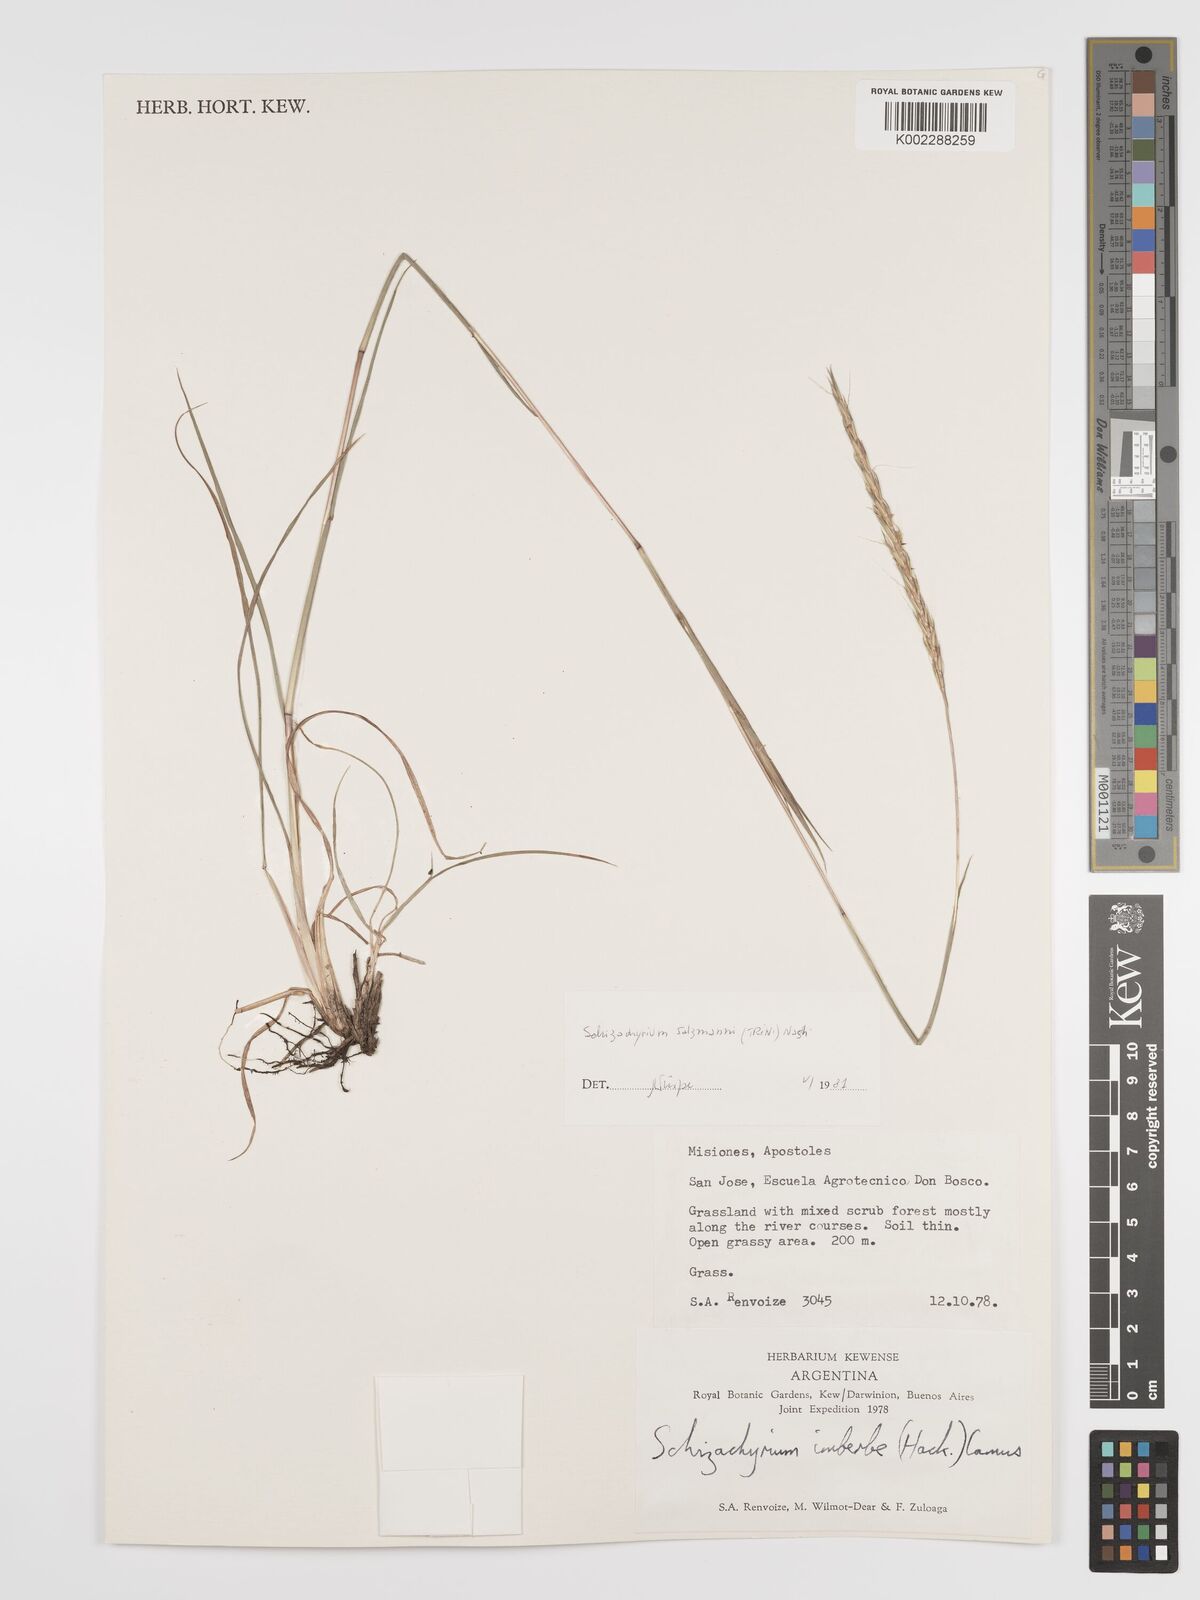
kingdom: Plantae
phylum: Tracheophyta
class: Liliopsida
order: Poales
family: Poaceae
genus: Andropogon
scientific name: Andropogon salzmannii
